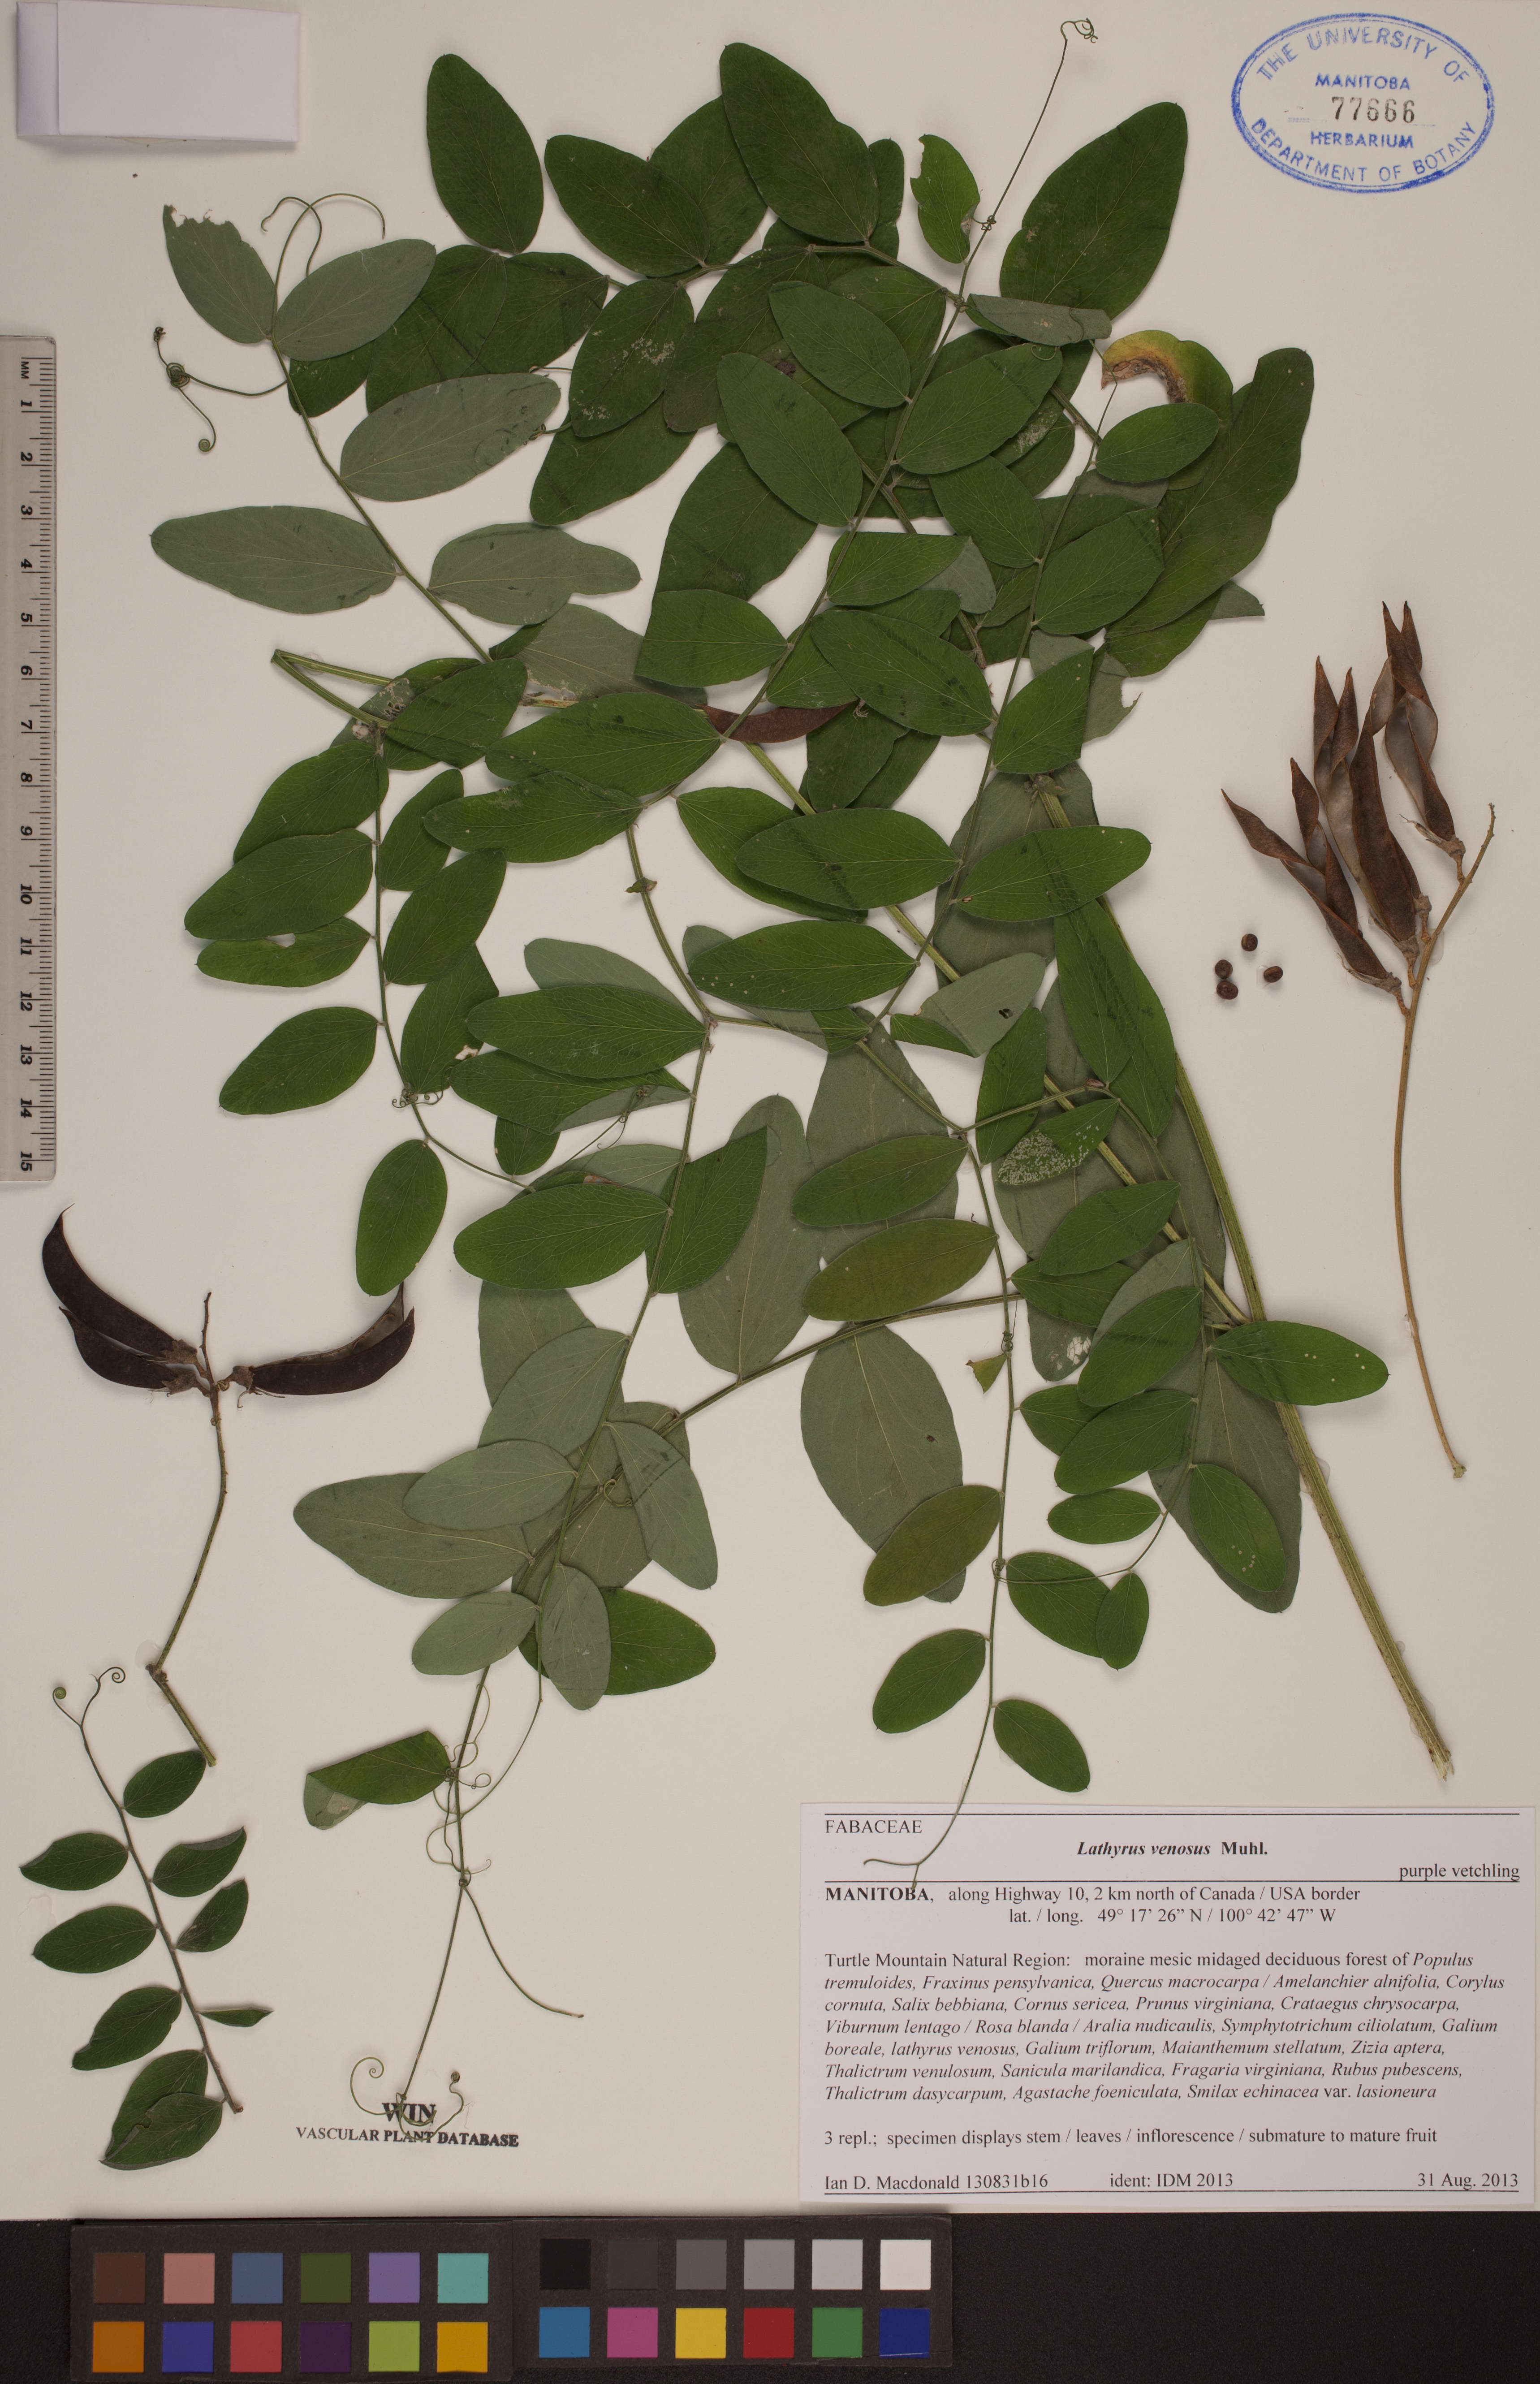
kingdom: Plantae
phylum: Tracheophyta
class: Magnoliopsida
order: Fabales
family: Fabaceae
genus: Lathyrus
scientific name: Lathyrus venosus
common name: Forest-pea
